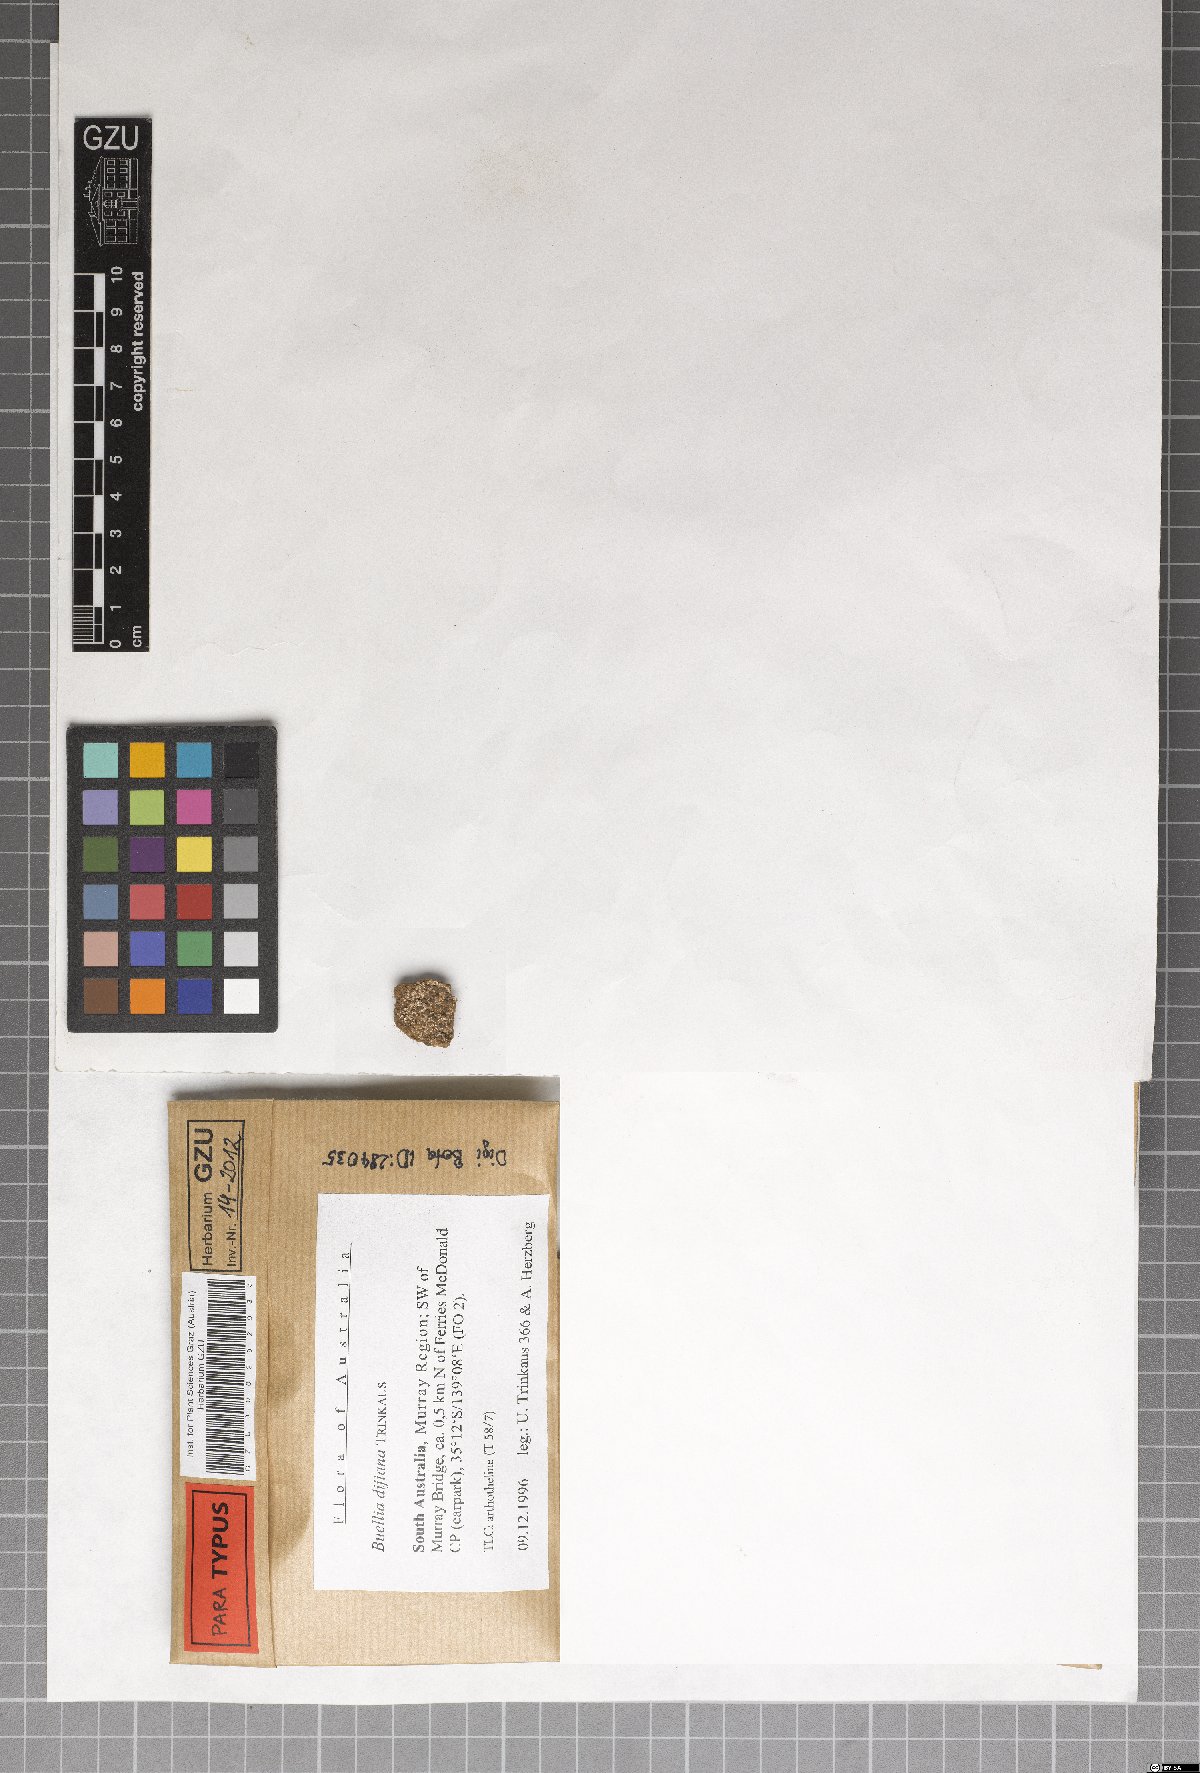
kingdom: Fungi
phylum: Ascomycota
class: Lecanoromycetes
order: Caliciales
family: Caliciaceae
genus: Buellia
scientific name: Buellia dayboroana
